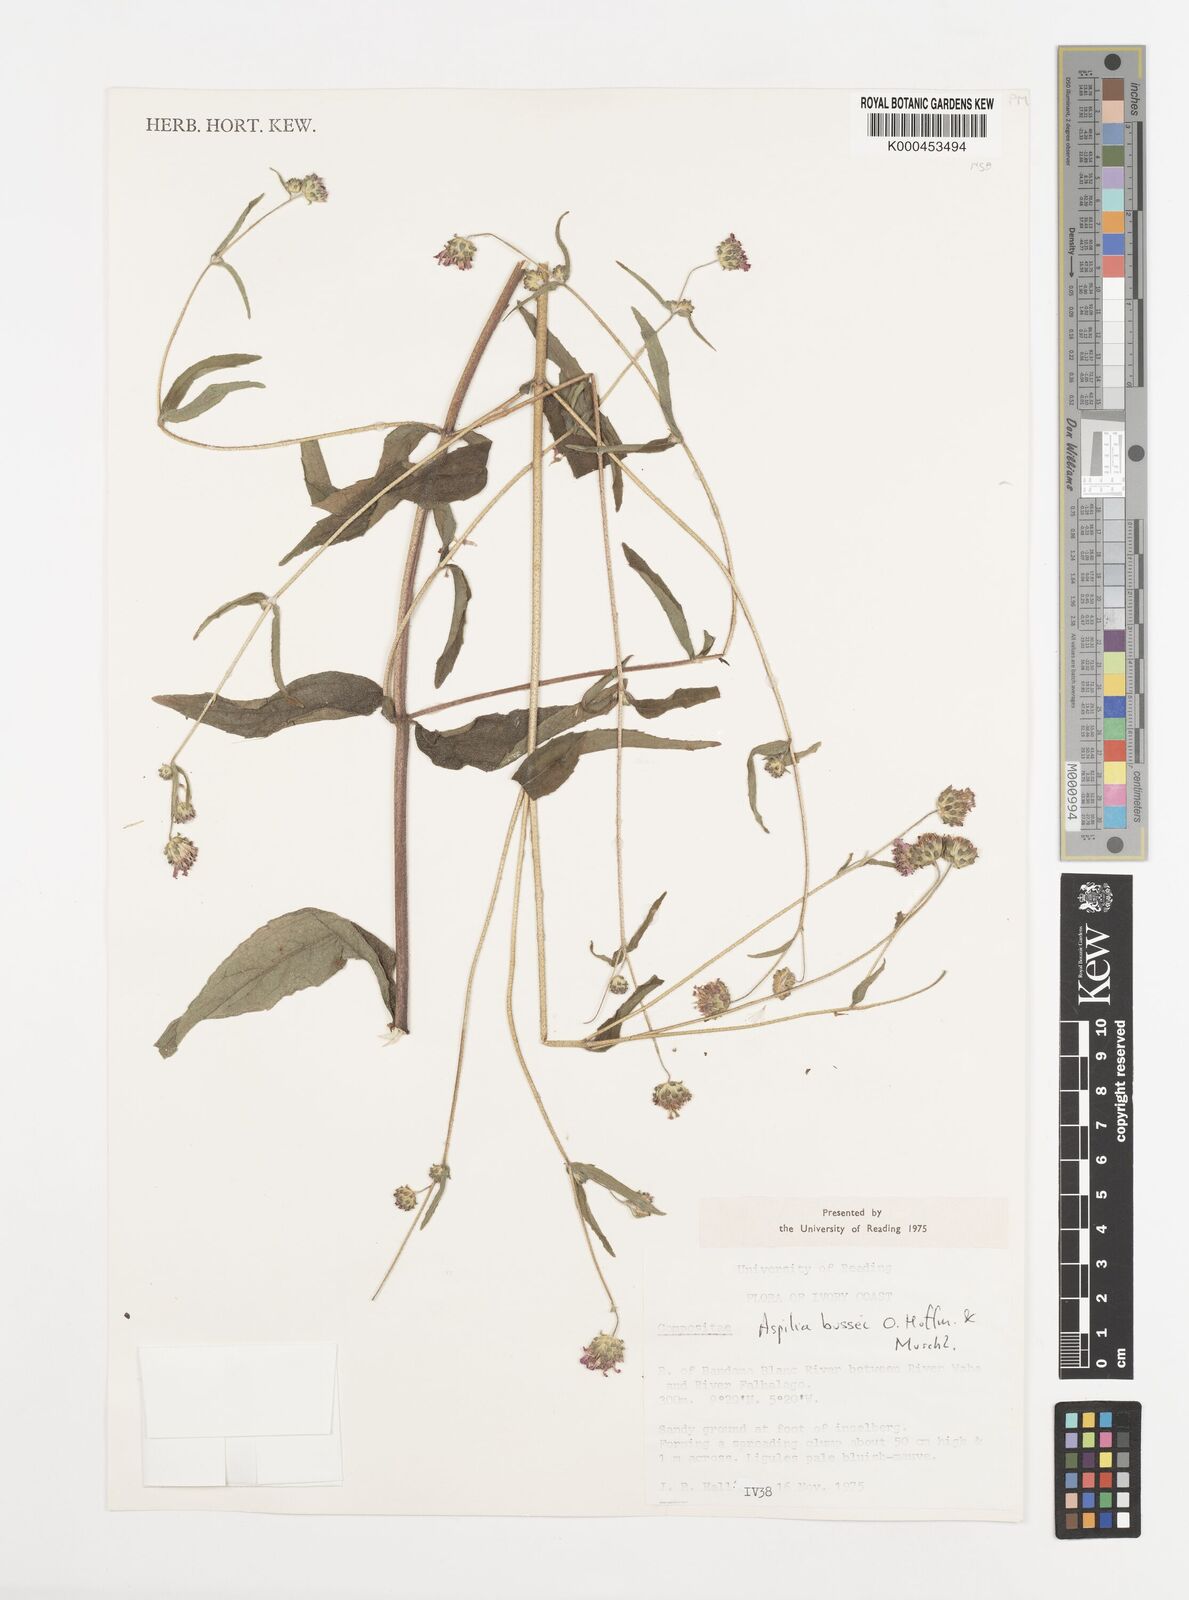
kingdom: Plantae
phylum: Tracheophyta
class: Magnoliopsida
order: Asterales
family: Asteraceae
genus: Aspilia
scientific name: Aspilia bussei
